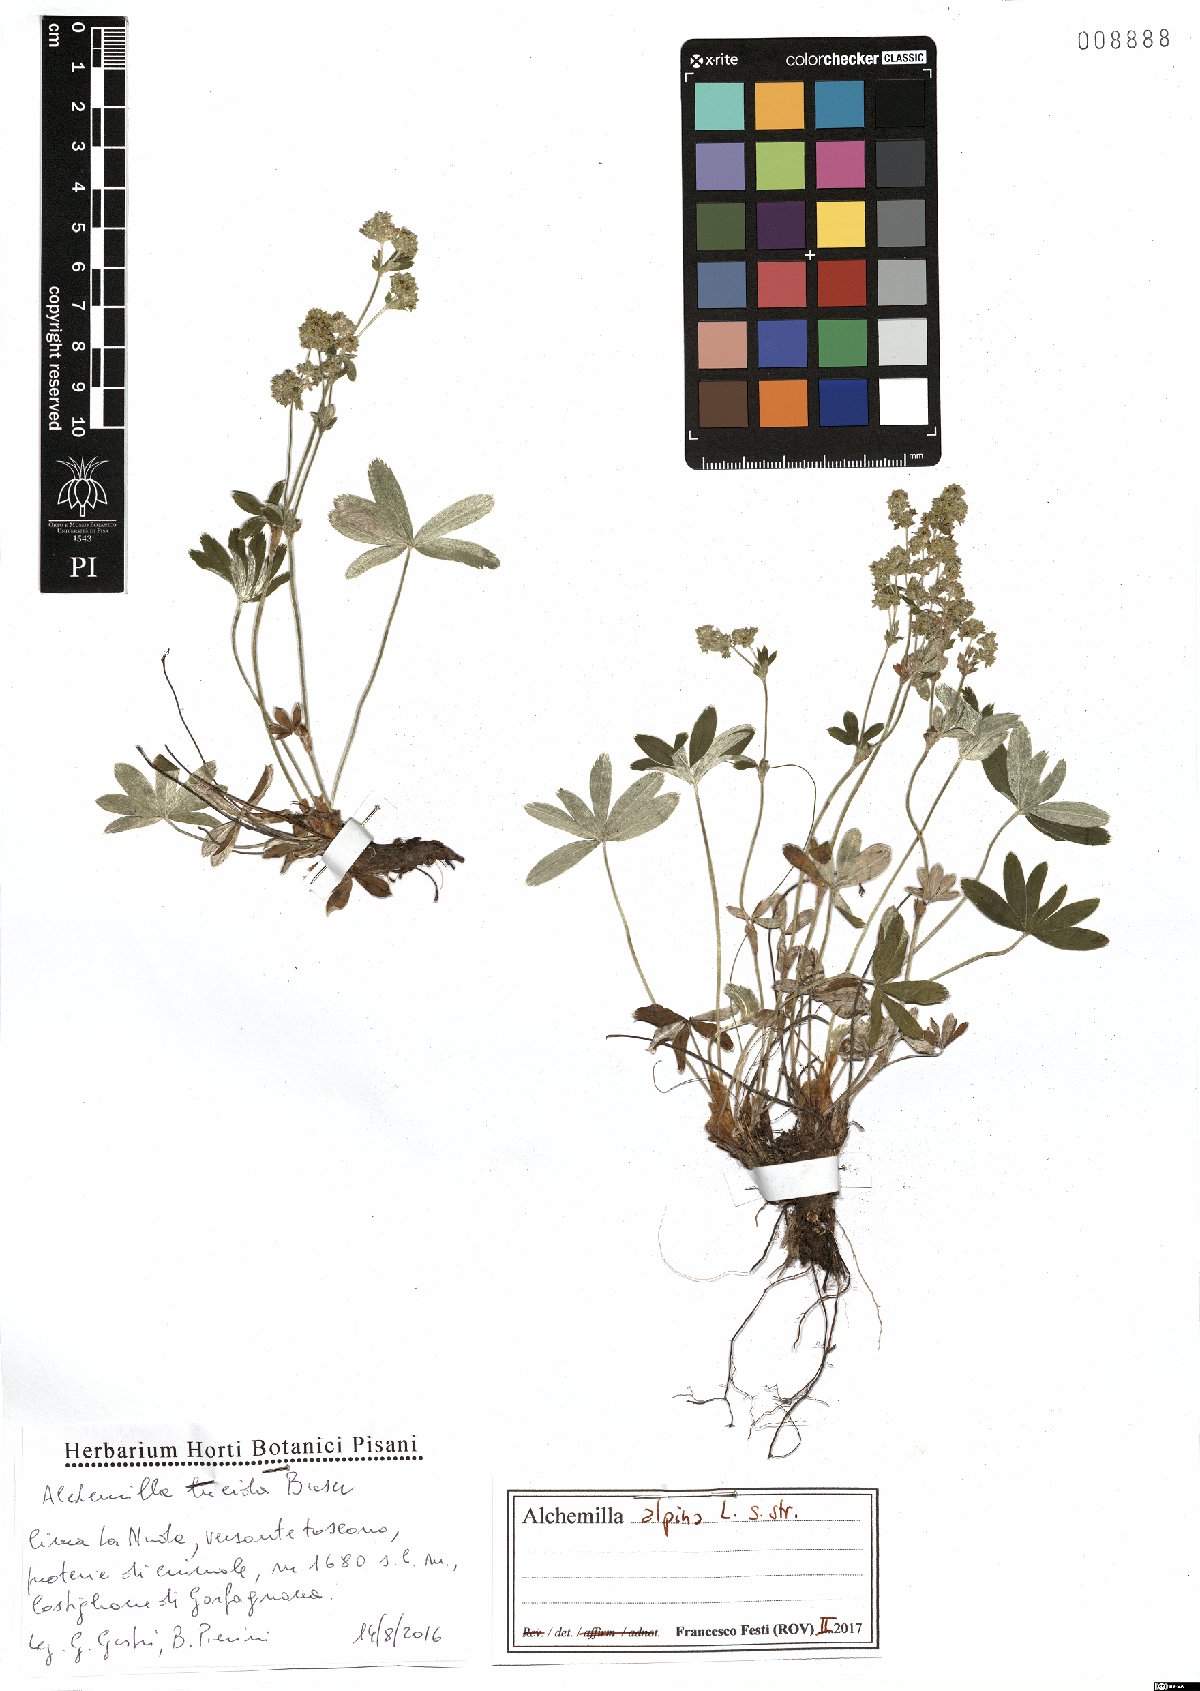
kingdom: Plantae
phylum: Tracheophyta
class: Magnoliopsida
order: Rosales
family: Rosaceae
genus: Alchemilla
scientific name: Alchemilla alpina
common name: Alpine lady's-mantle
